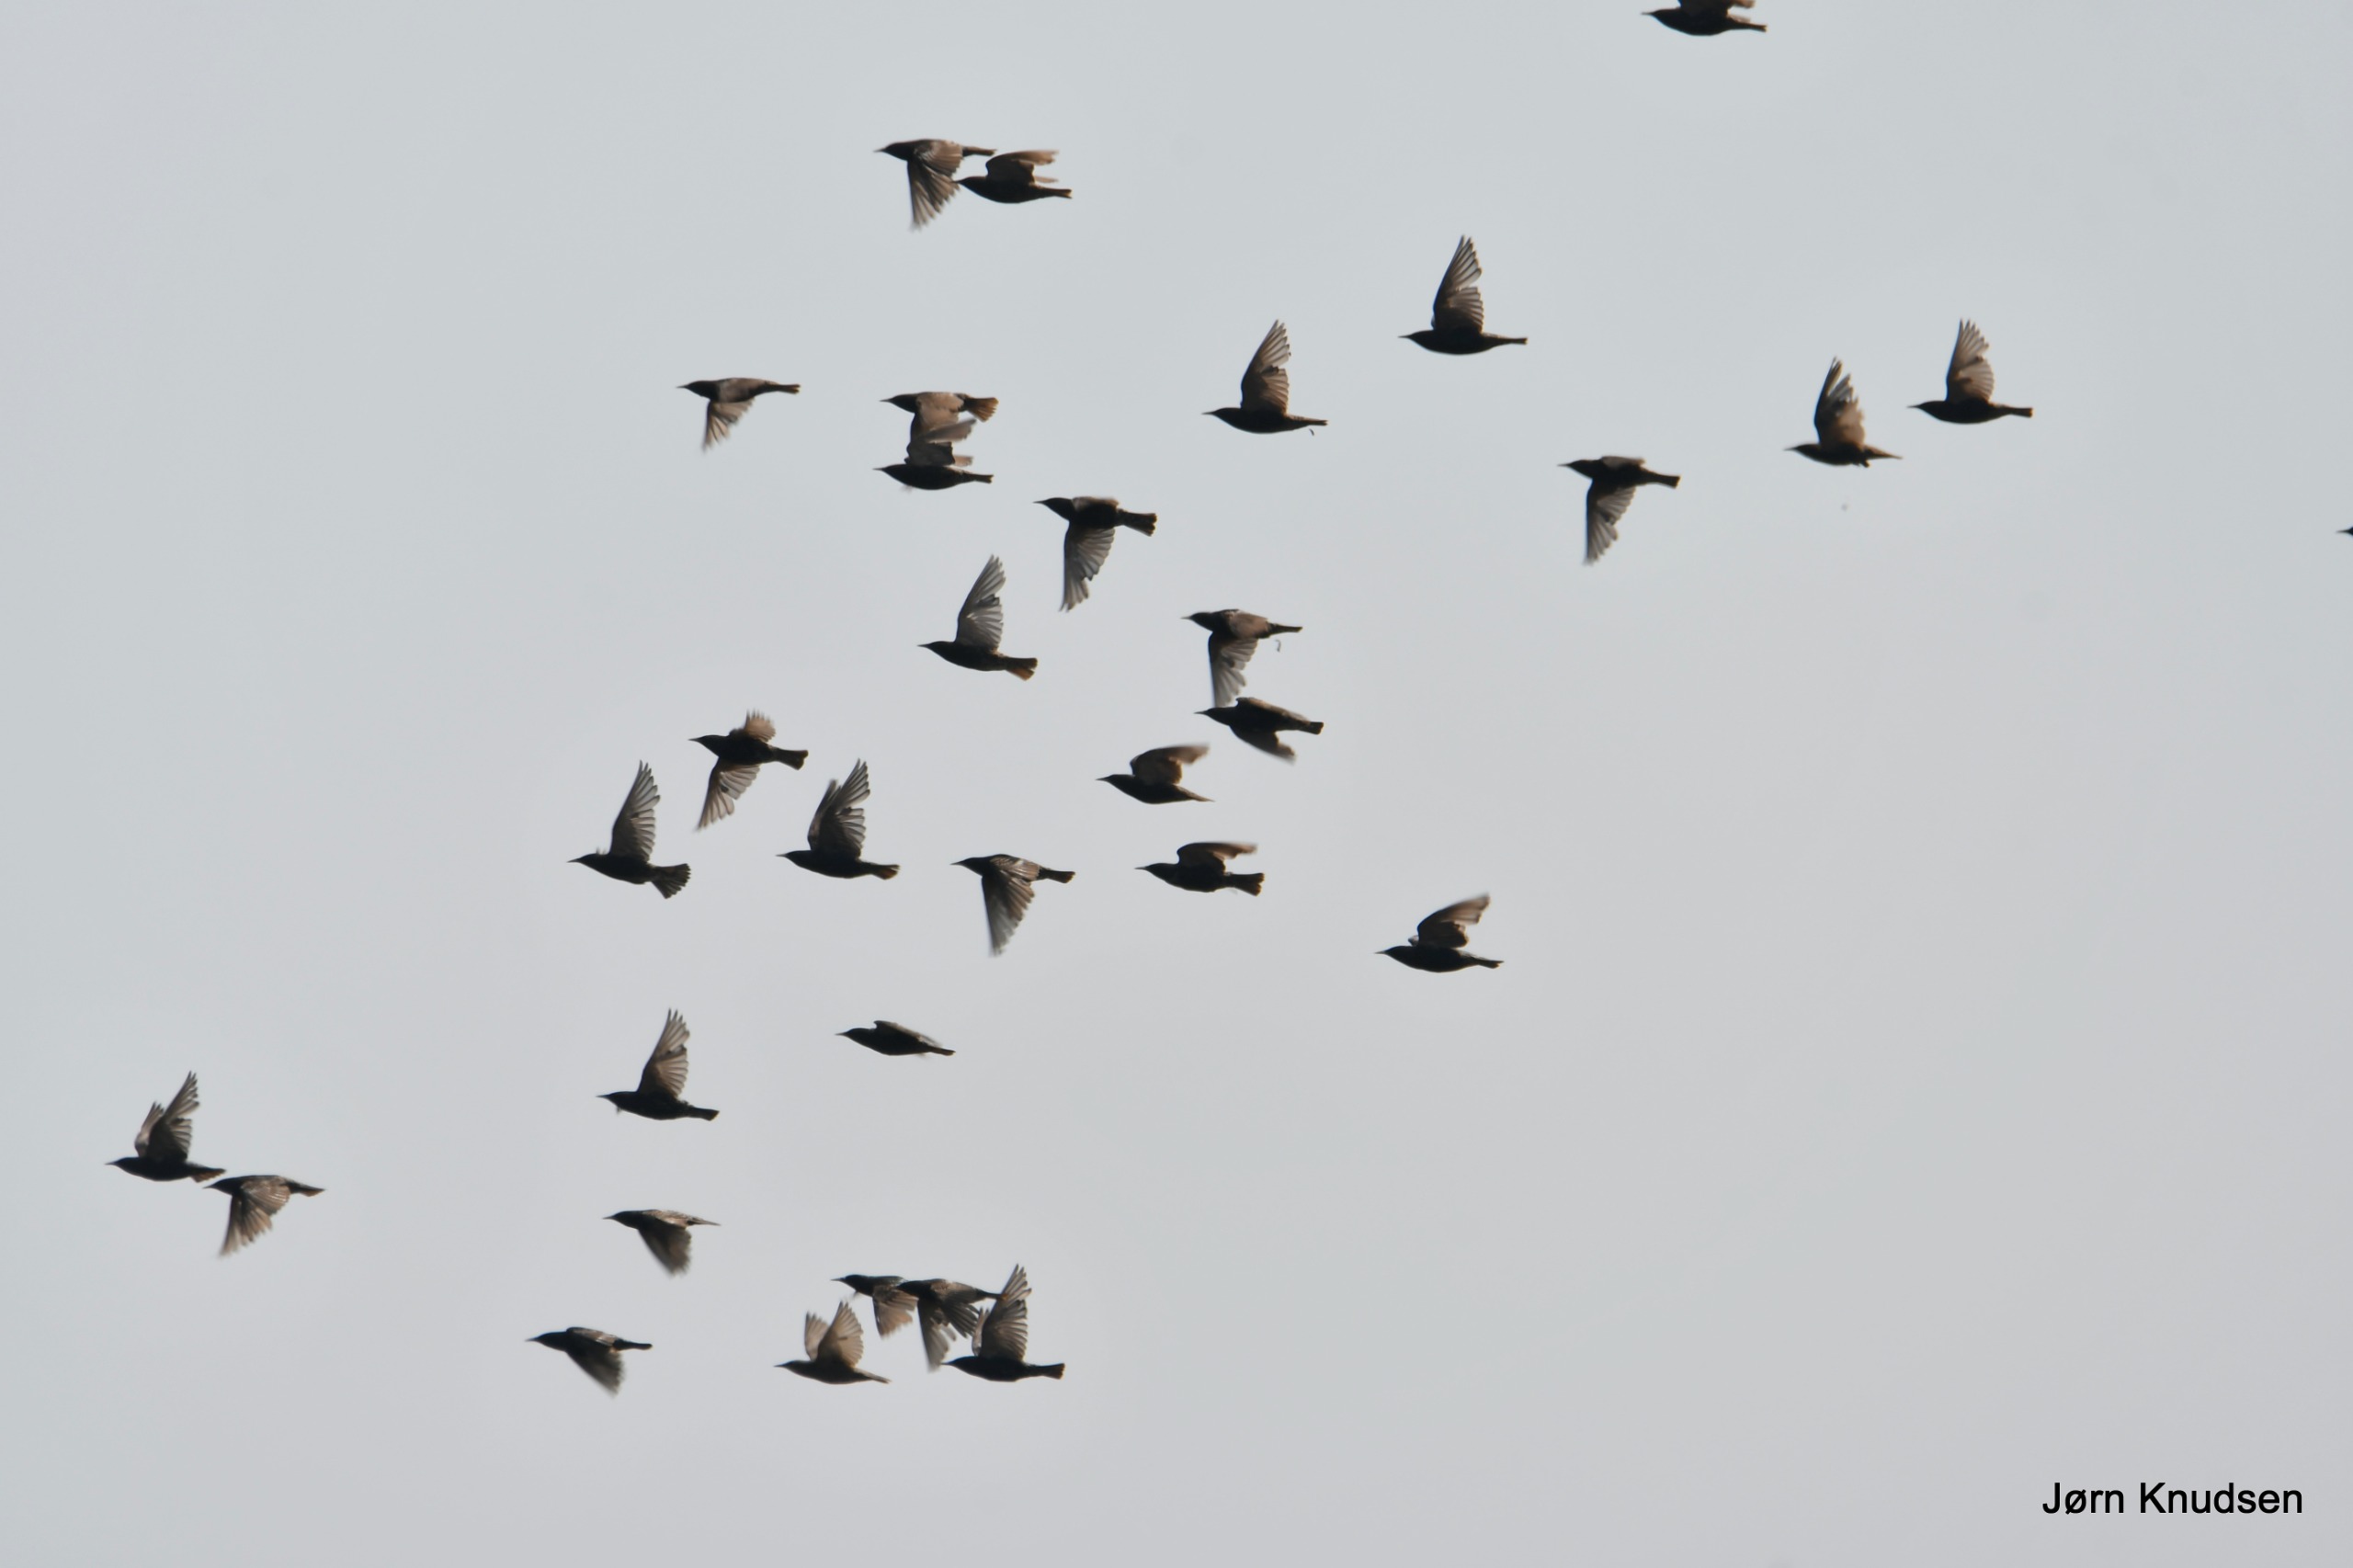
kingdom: Animalia
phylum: Chordata
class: Aves
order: Passeriformes
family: Sturnidae
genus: Sturnus
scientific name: Sturnus vulgaris
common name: Stær
